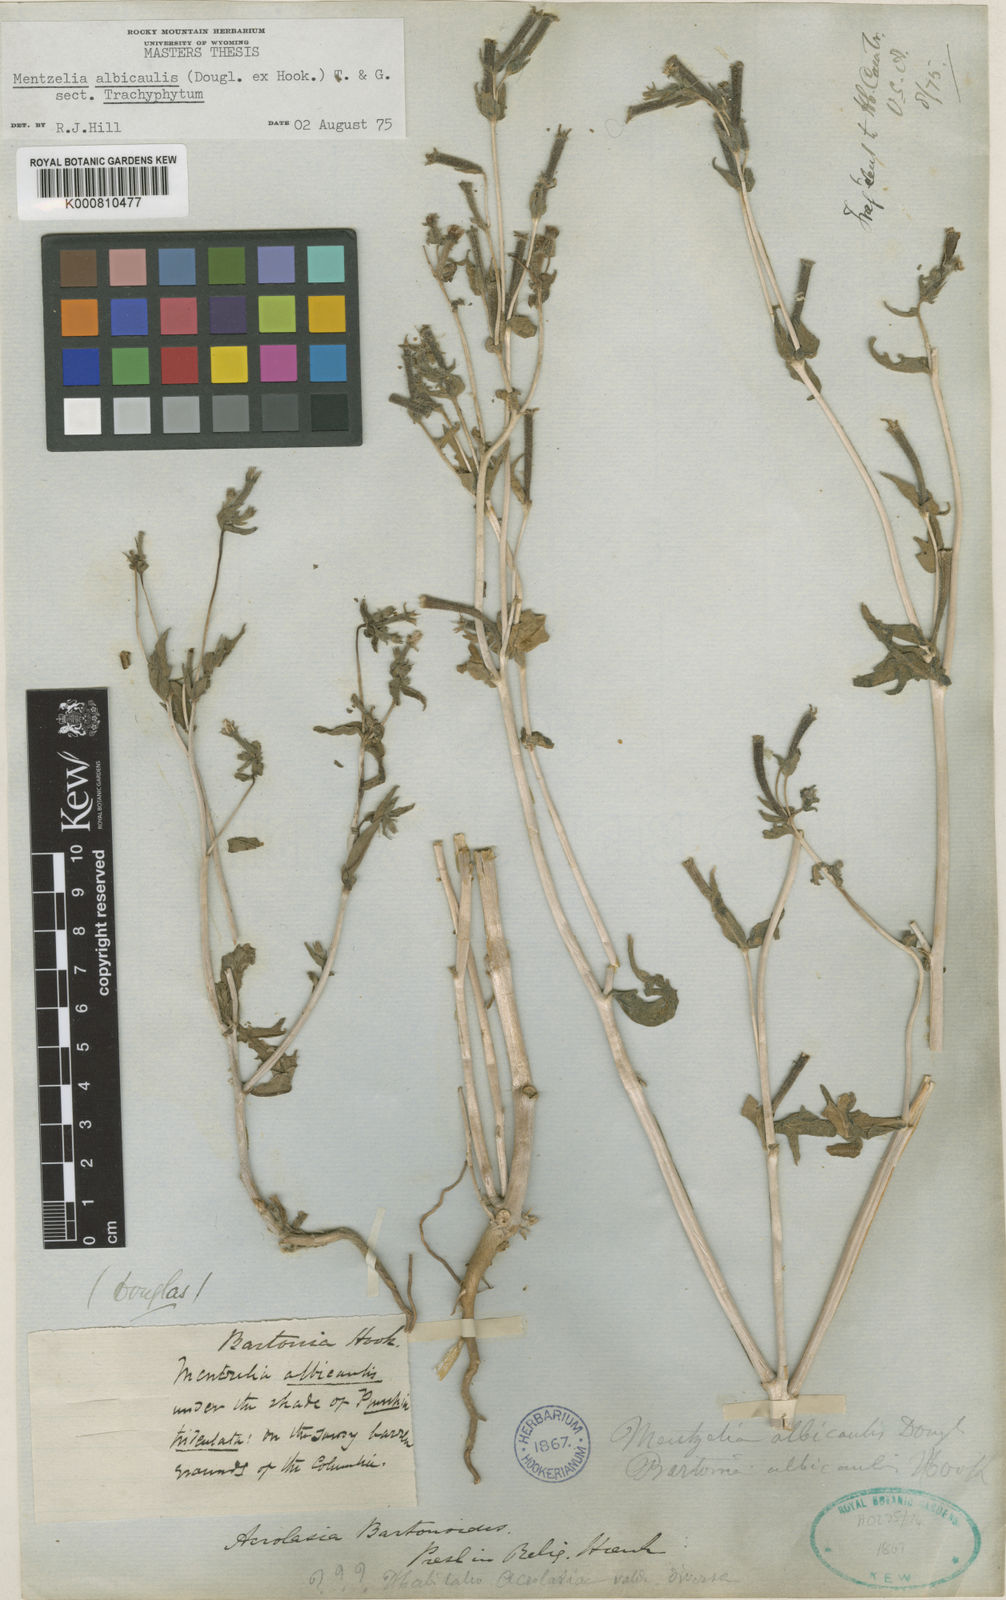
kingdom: Plantae
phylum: Tracheophyta
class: Magnoliopsida
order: Cornales
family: Loasaceae
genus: Mentzelia
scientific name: Mentzelia albicaulis
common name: White-stem blazingstar
